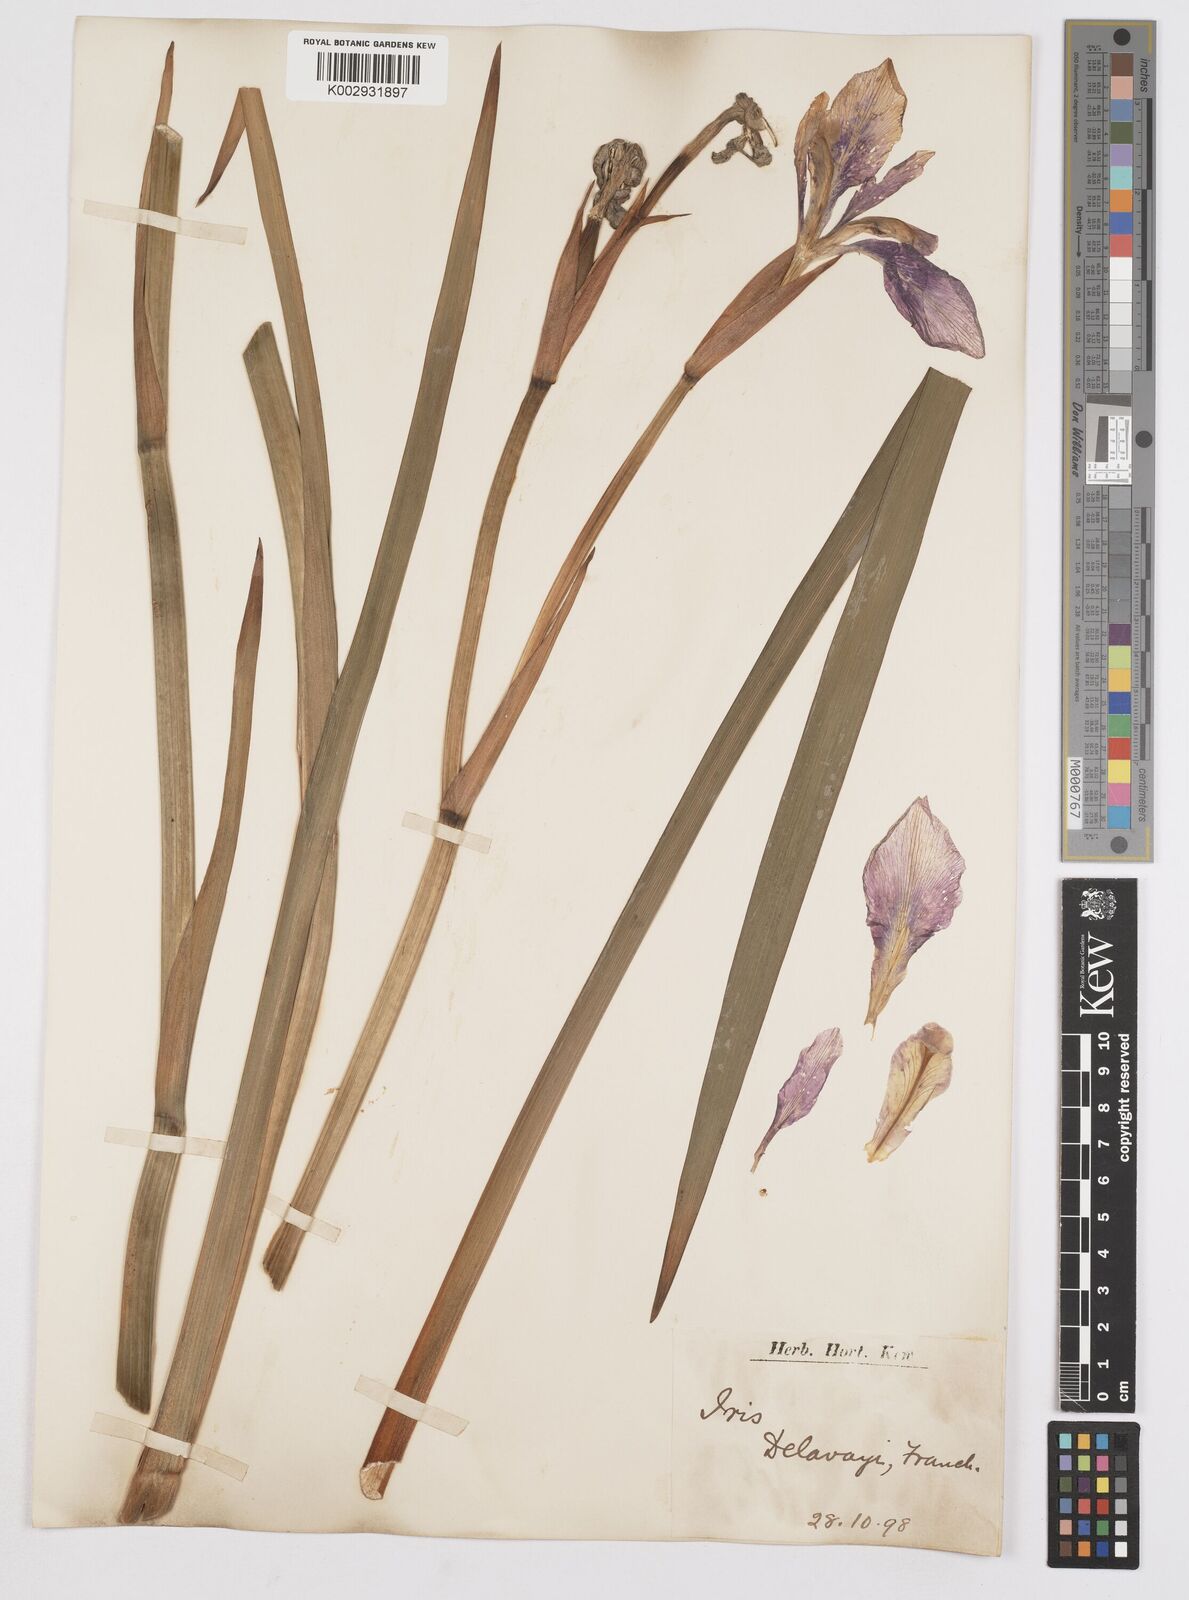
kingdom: Plantae
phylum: Tracheophyta
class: Liliopsida
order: Asparagales
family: Iridaceae
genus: Iris
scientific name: Iris delavayi
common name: Long-scape iris
